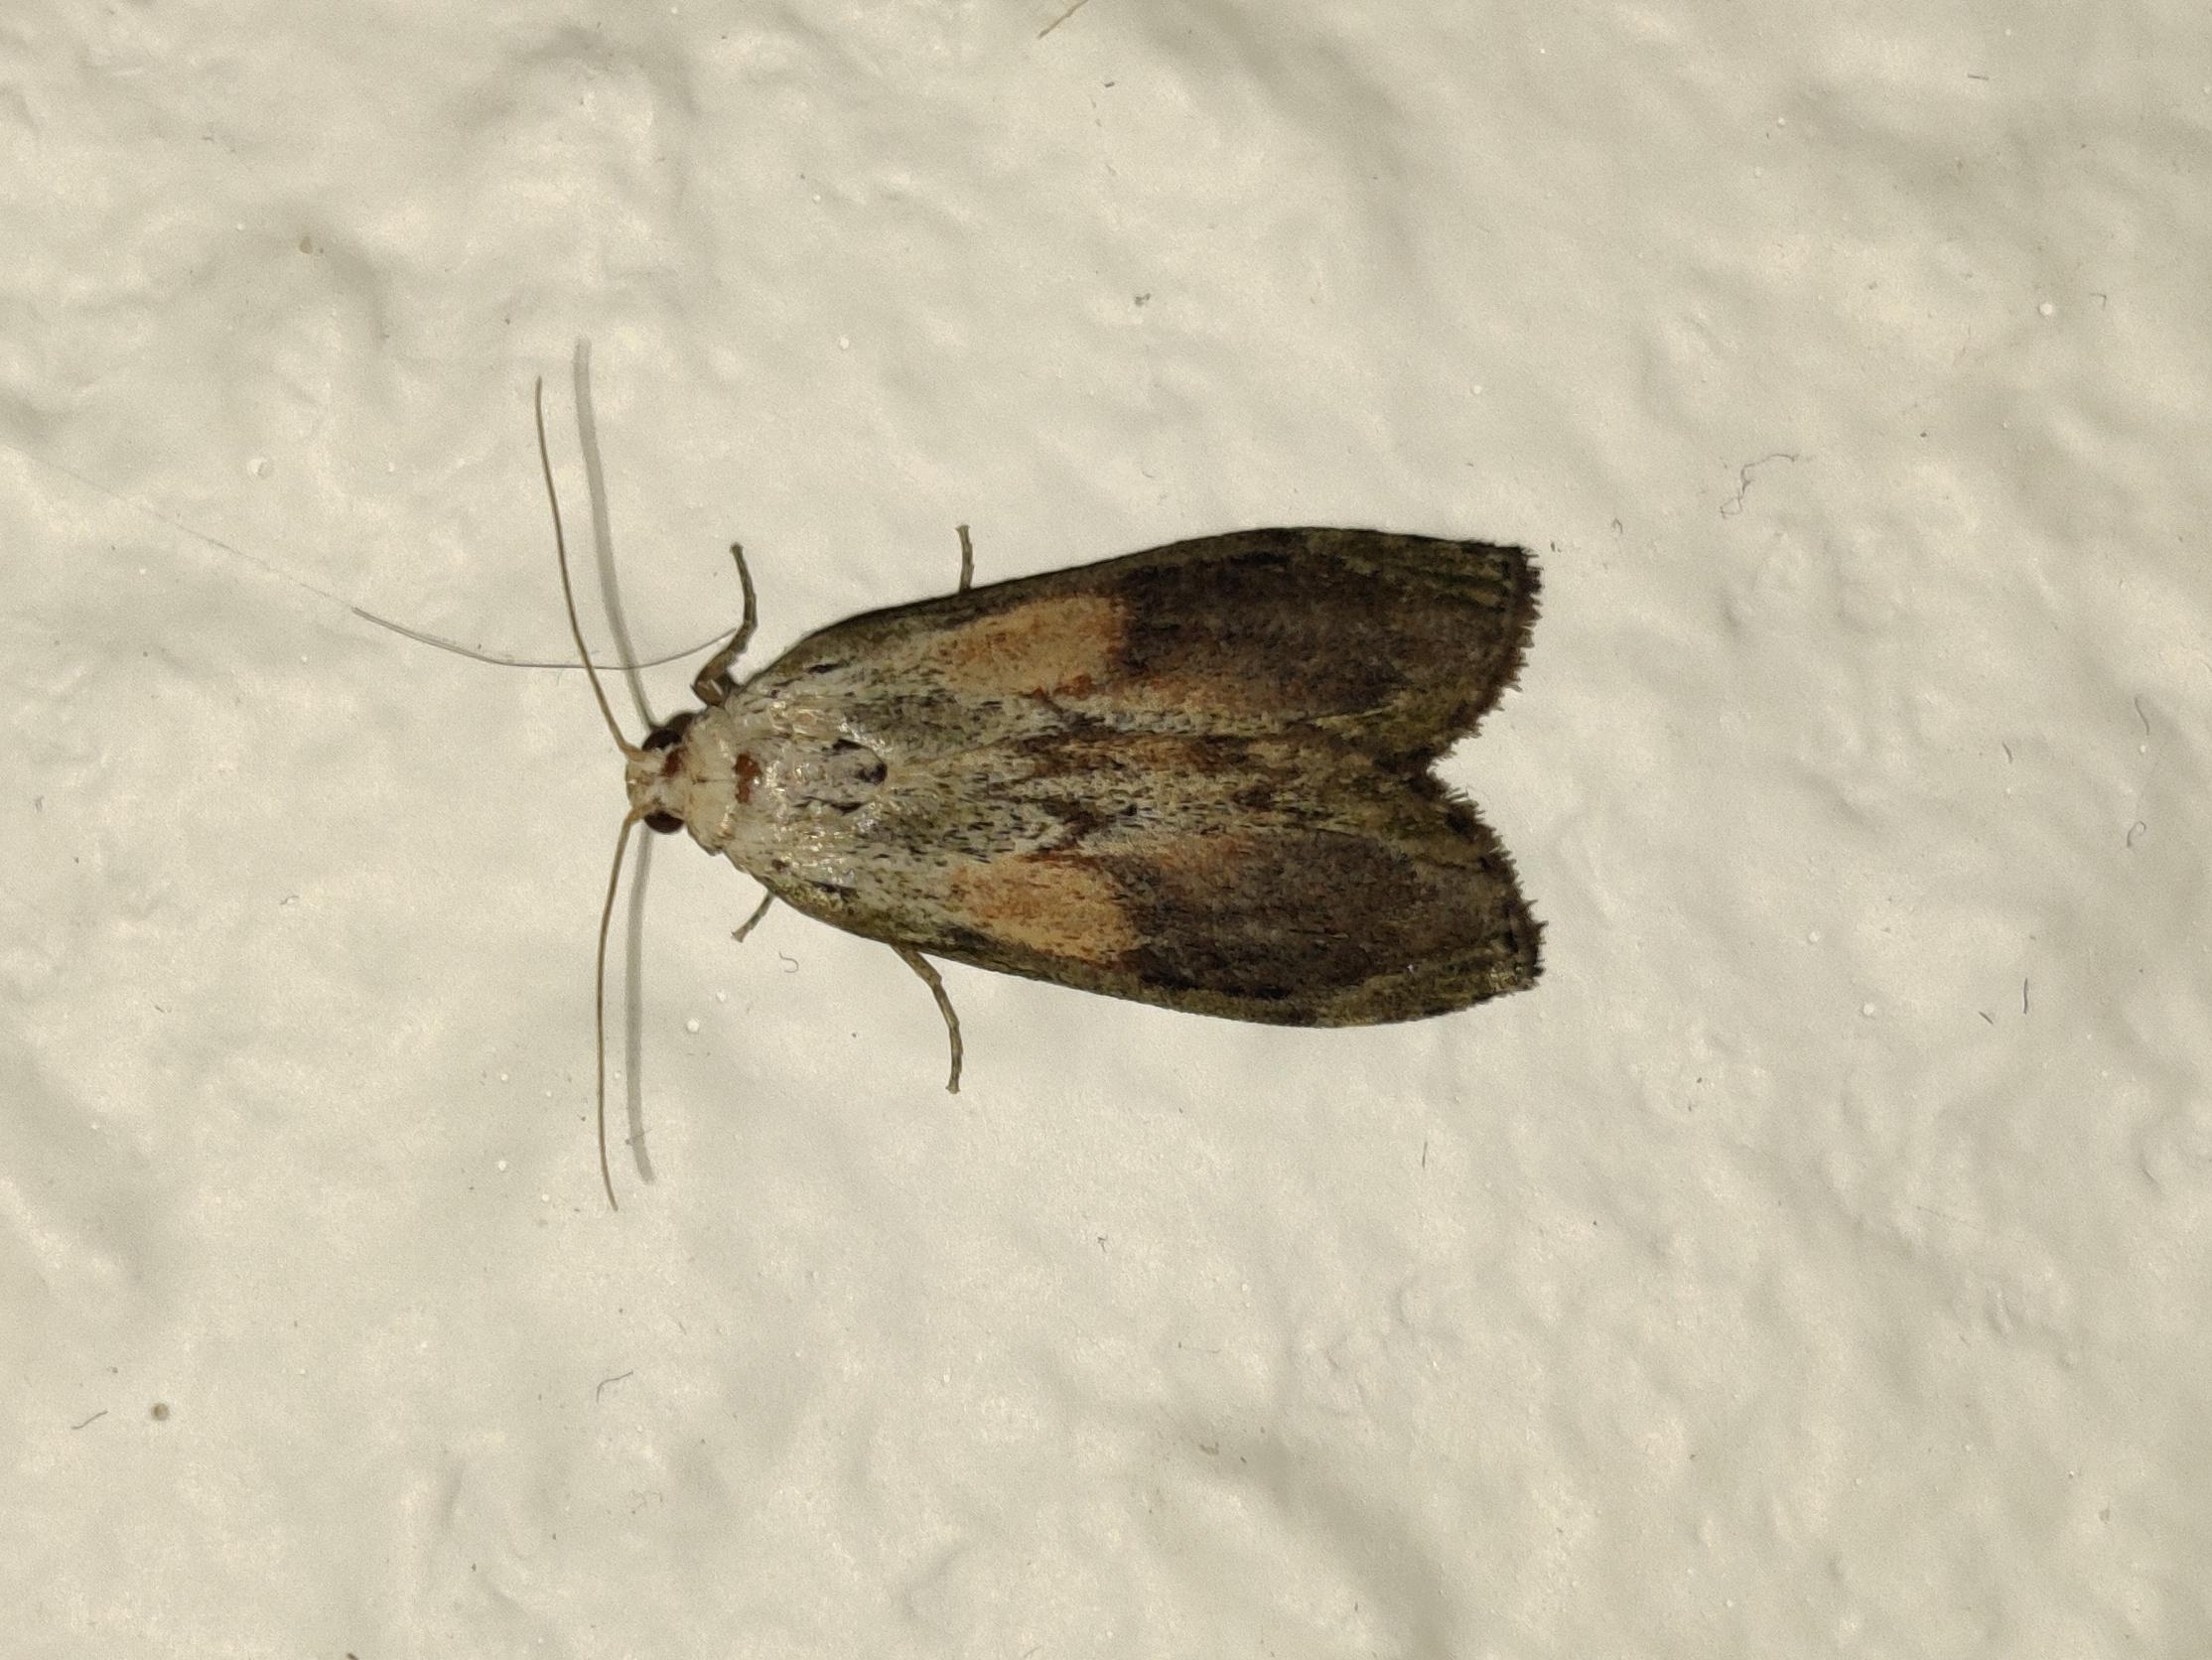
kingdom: Animalia
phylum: Arthropoda
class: Insecta
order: Lepidoptera
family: Pyralidae
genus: Aphomia
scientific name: Aphomia sociella
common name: Humlevoksmøl
